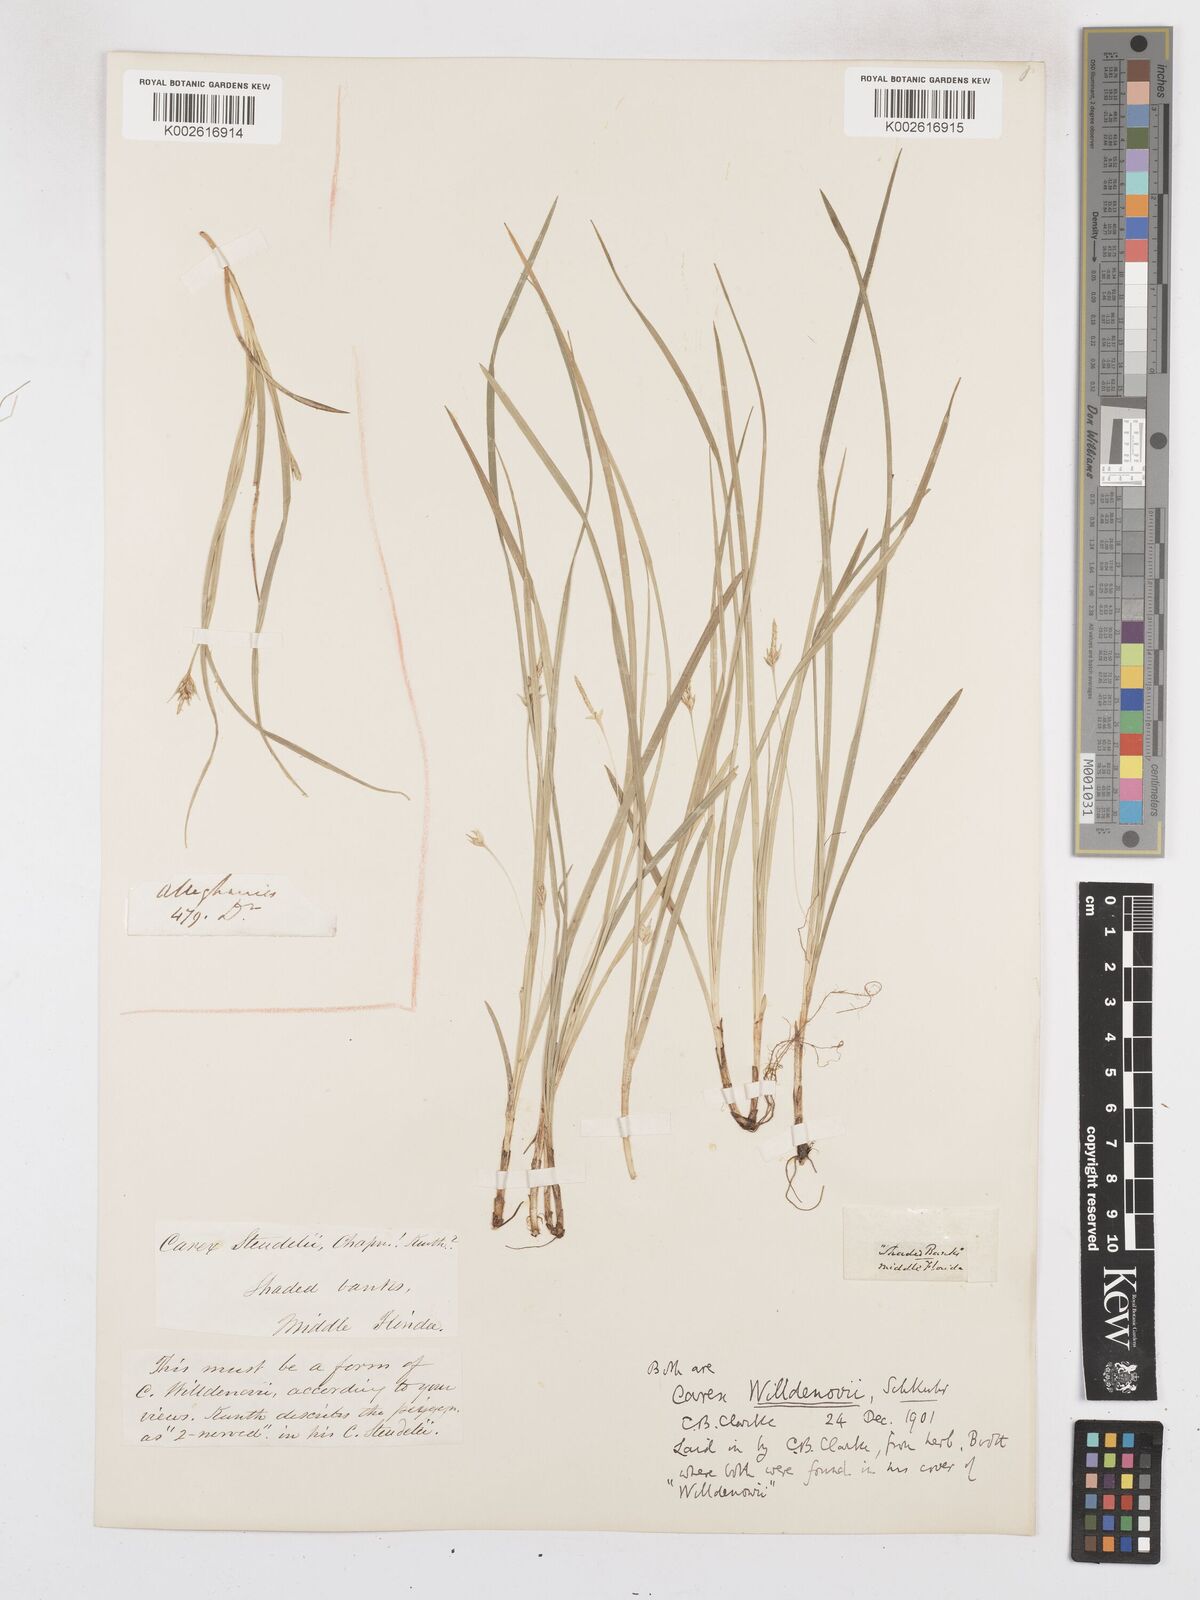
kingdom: Plantae
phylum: Tracheophyta
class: Liliopsida
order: Poales
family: Cyperaceae
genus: Carex
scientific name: Carex willdenowii
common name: Willdenow's sedge
